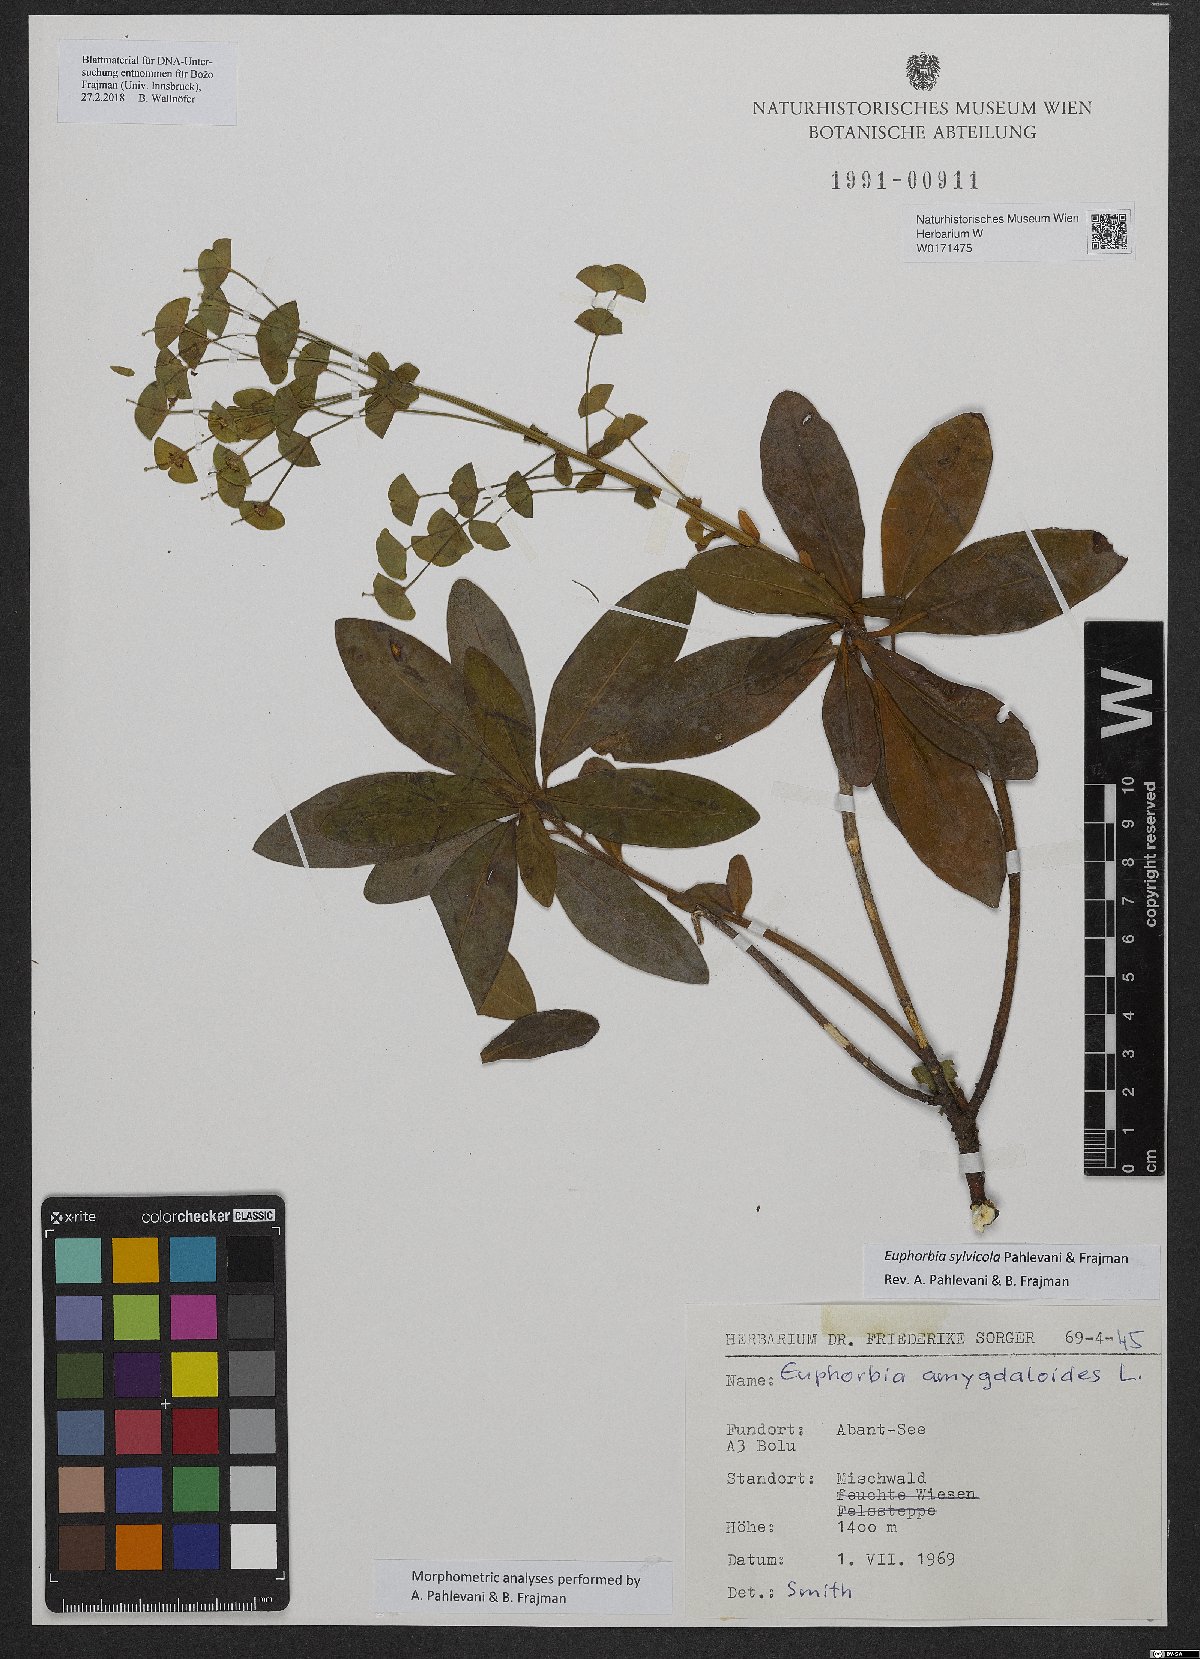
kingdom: Plantae
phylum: Tracheophyta
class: Magnoliopsida
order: Malpighiales
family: Euphorbiaceae
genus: Euphorbia
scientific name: Euphorbia juttae
